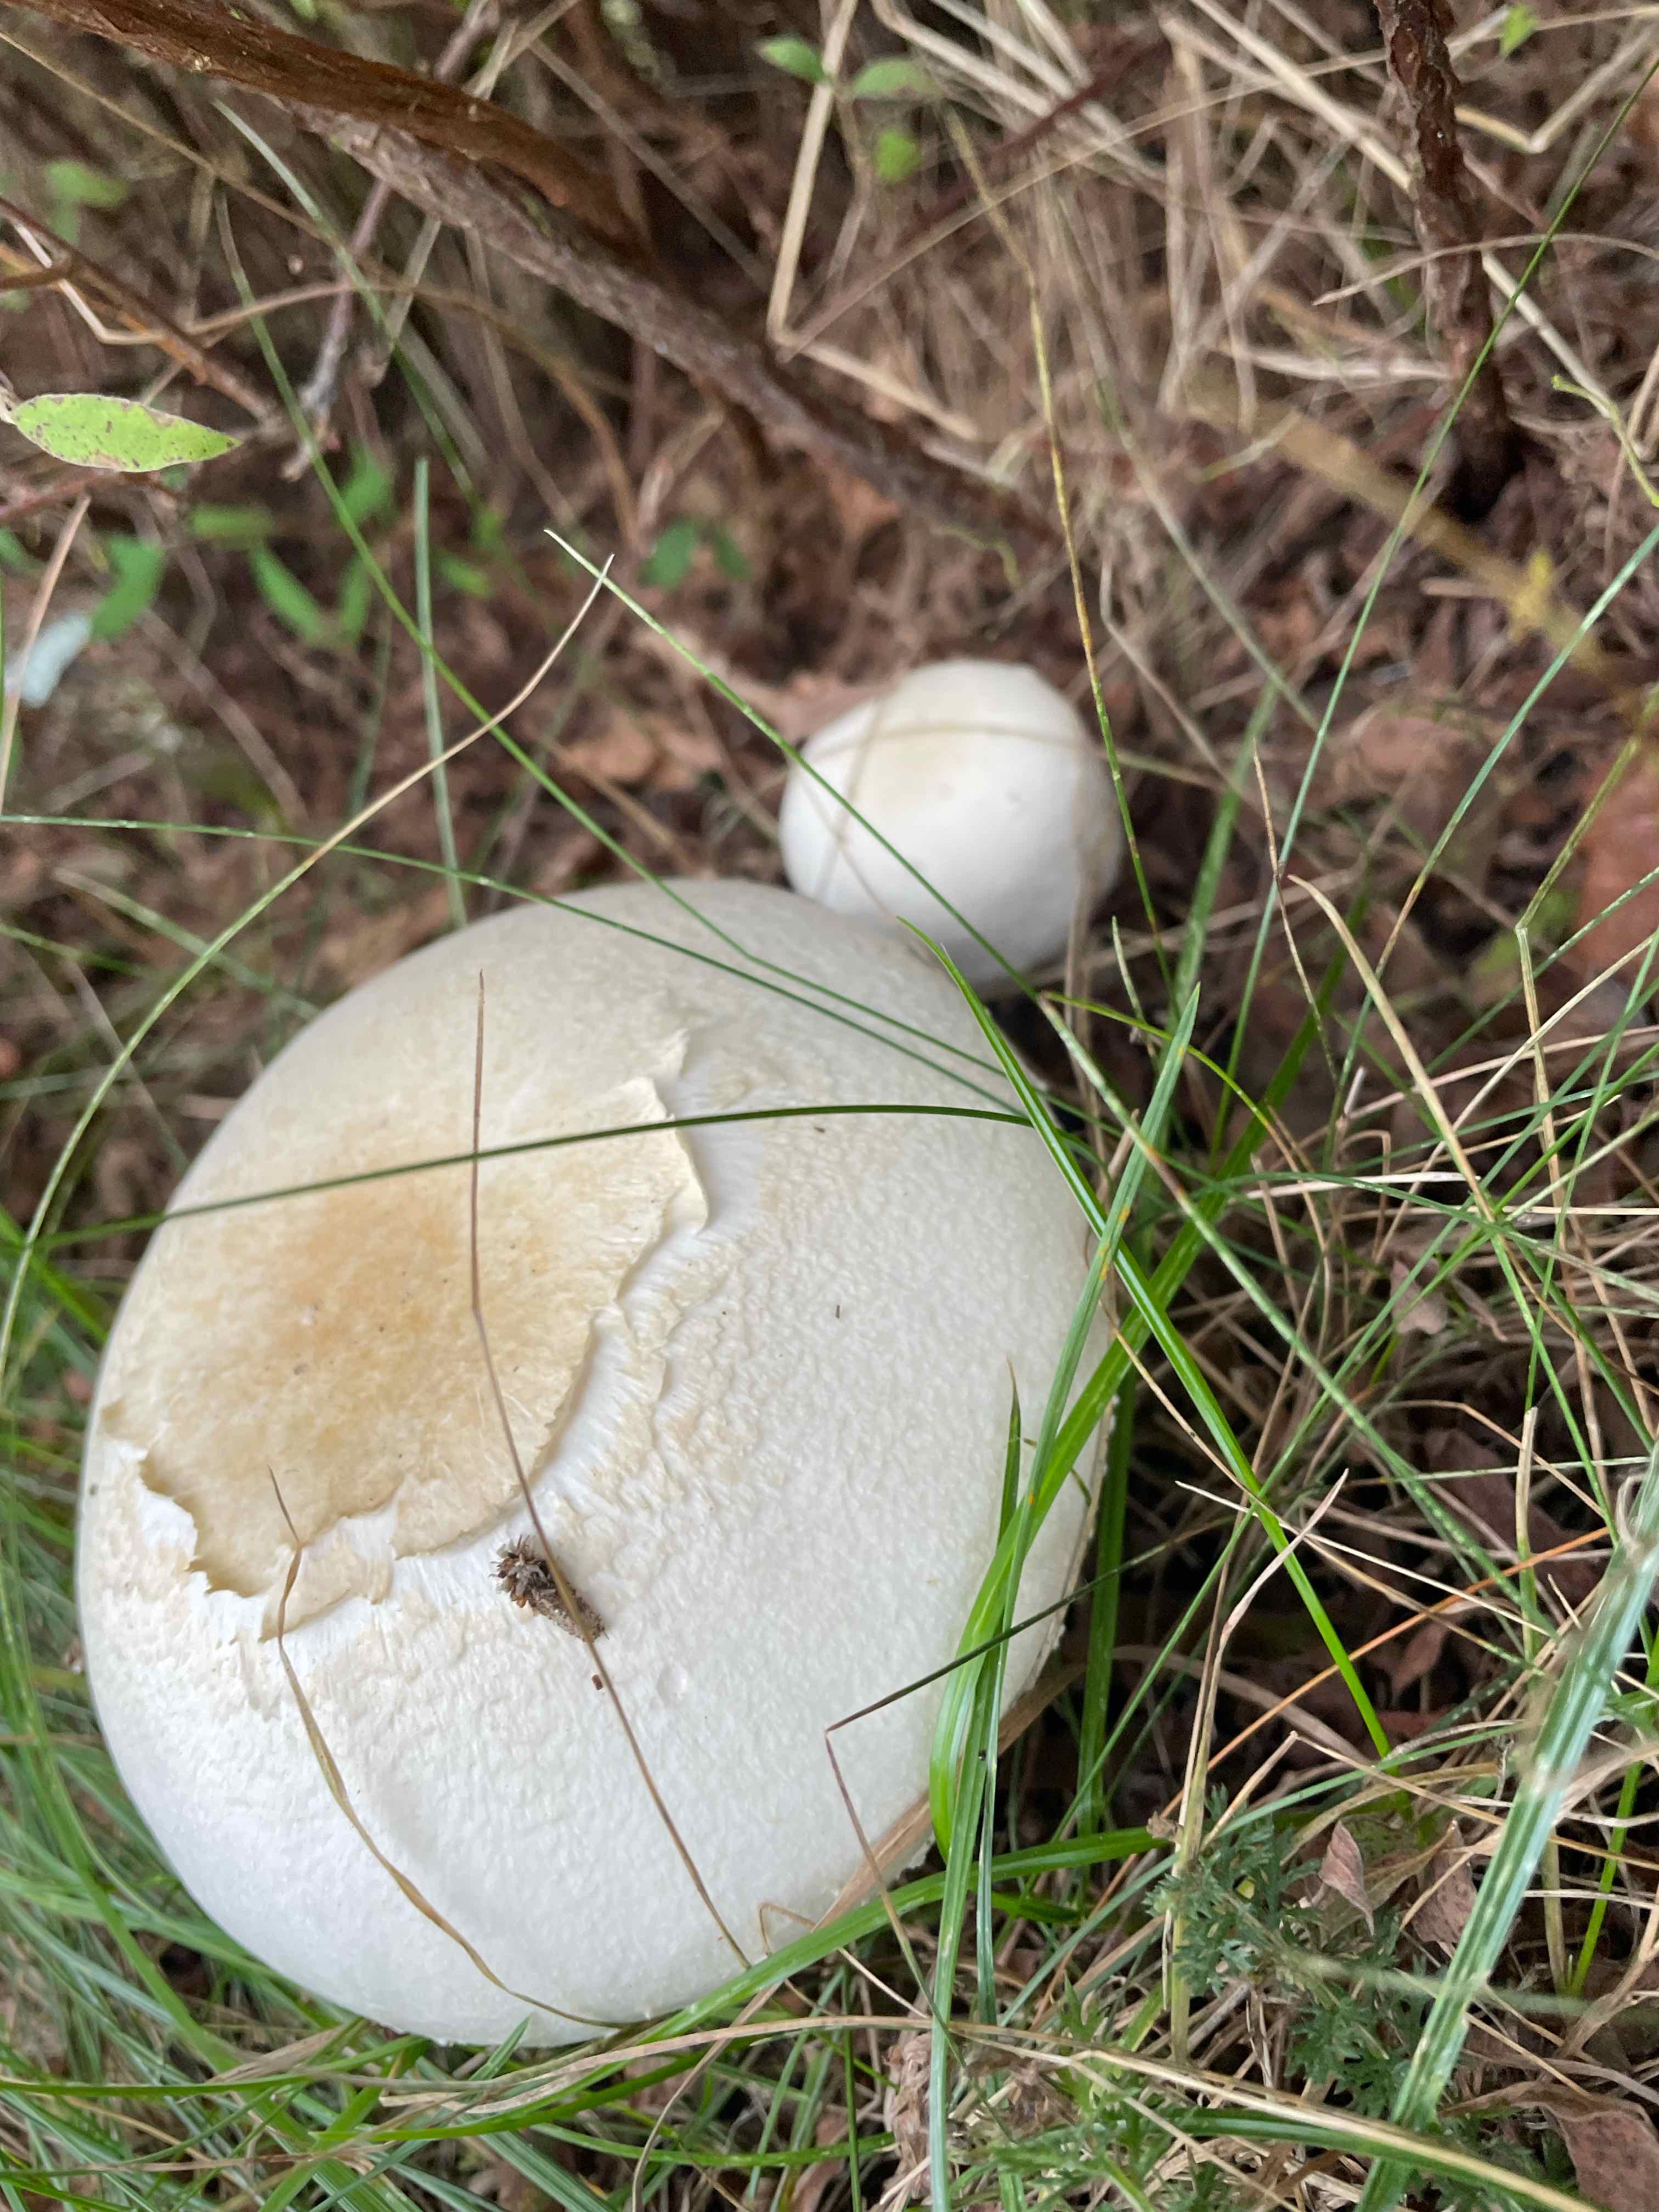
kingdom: Fungi
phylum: Basidiomycota
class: Agaricomycetes
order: Agaricales
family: Agaricaceae
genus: Agaricus
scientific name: Agaricus
